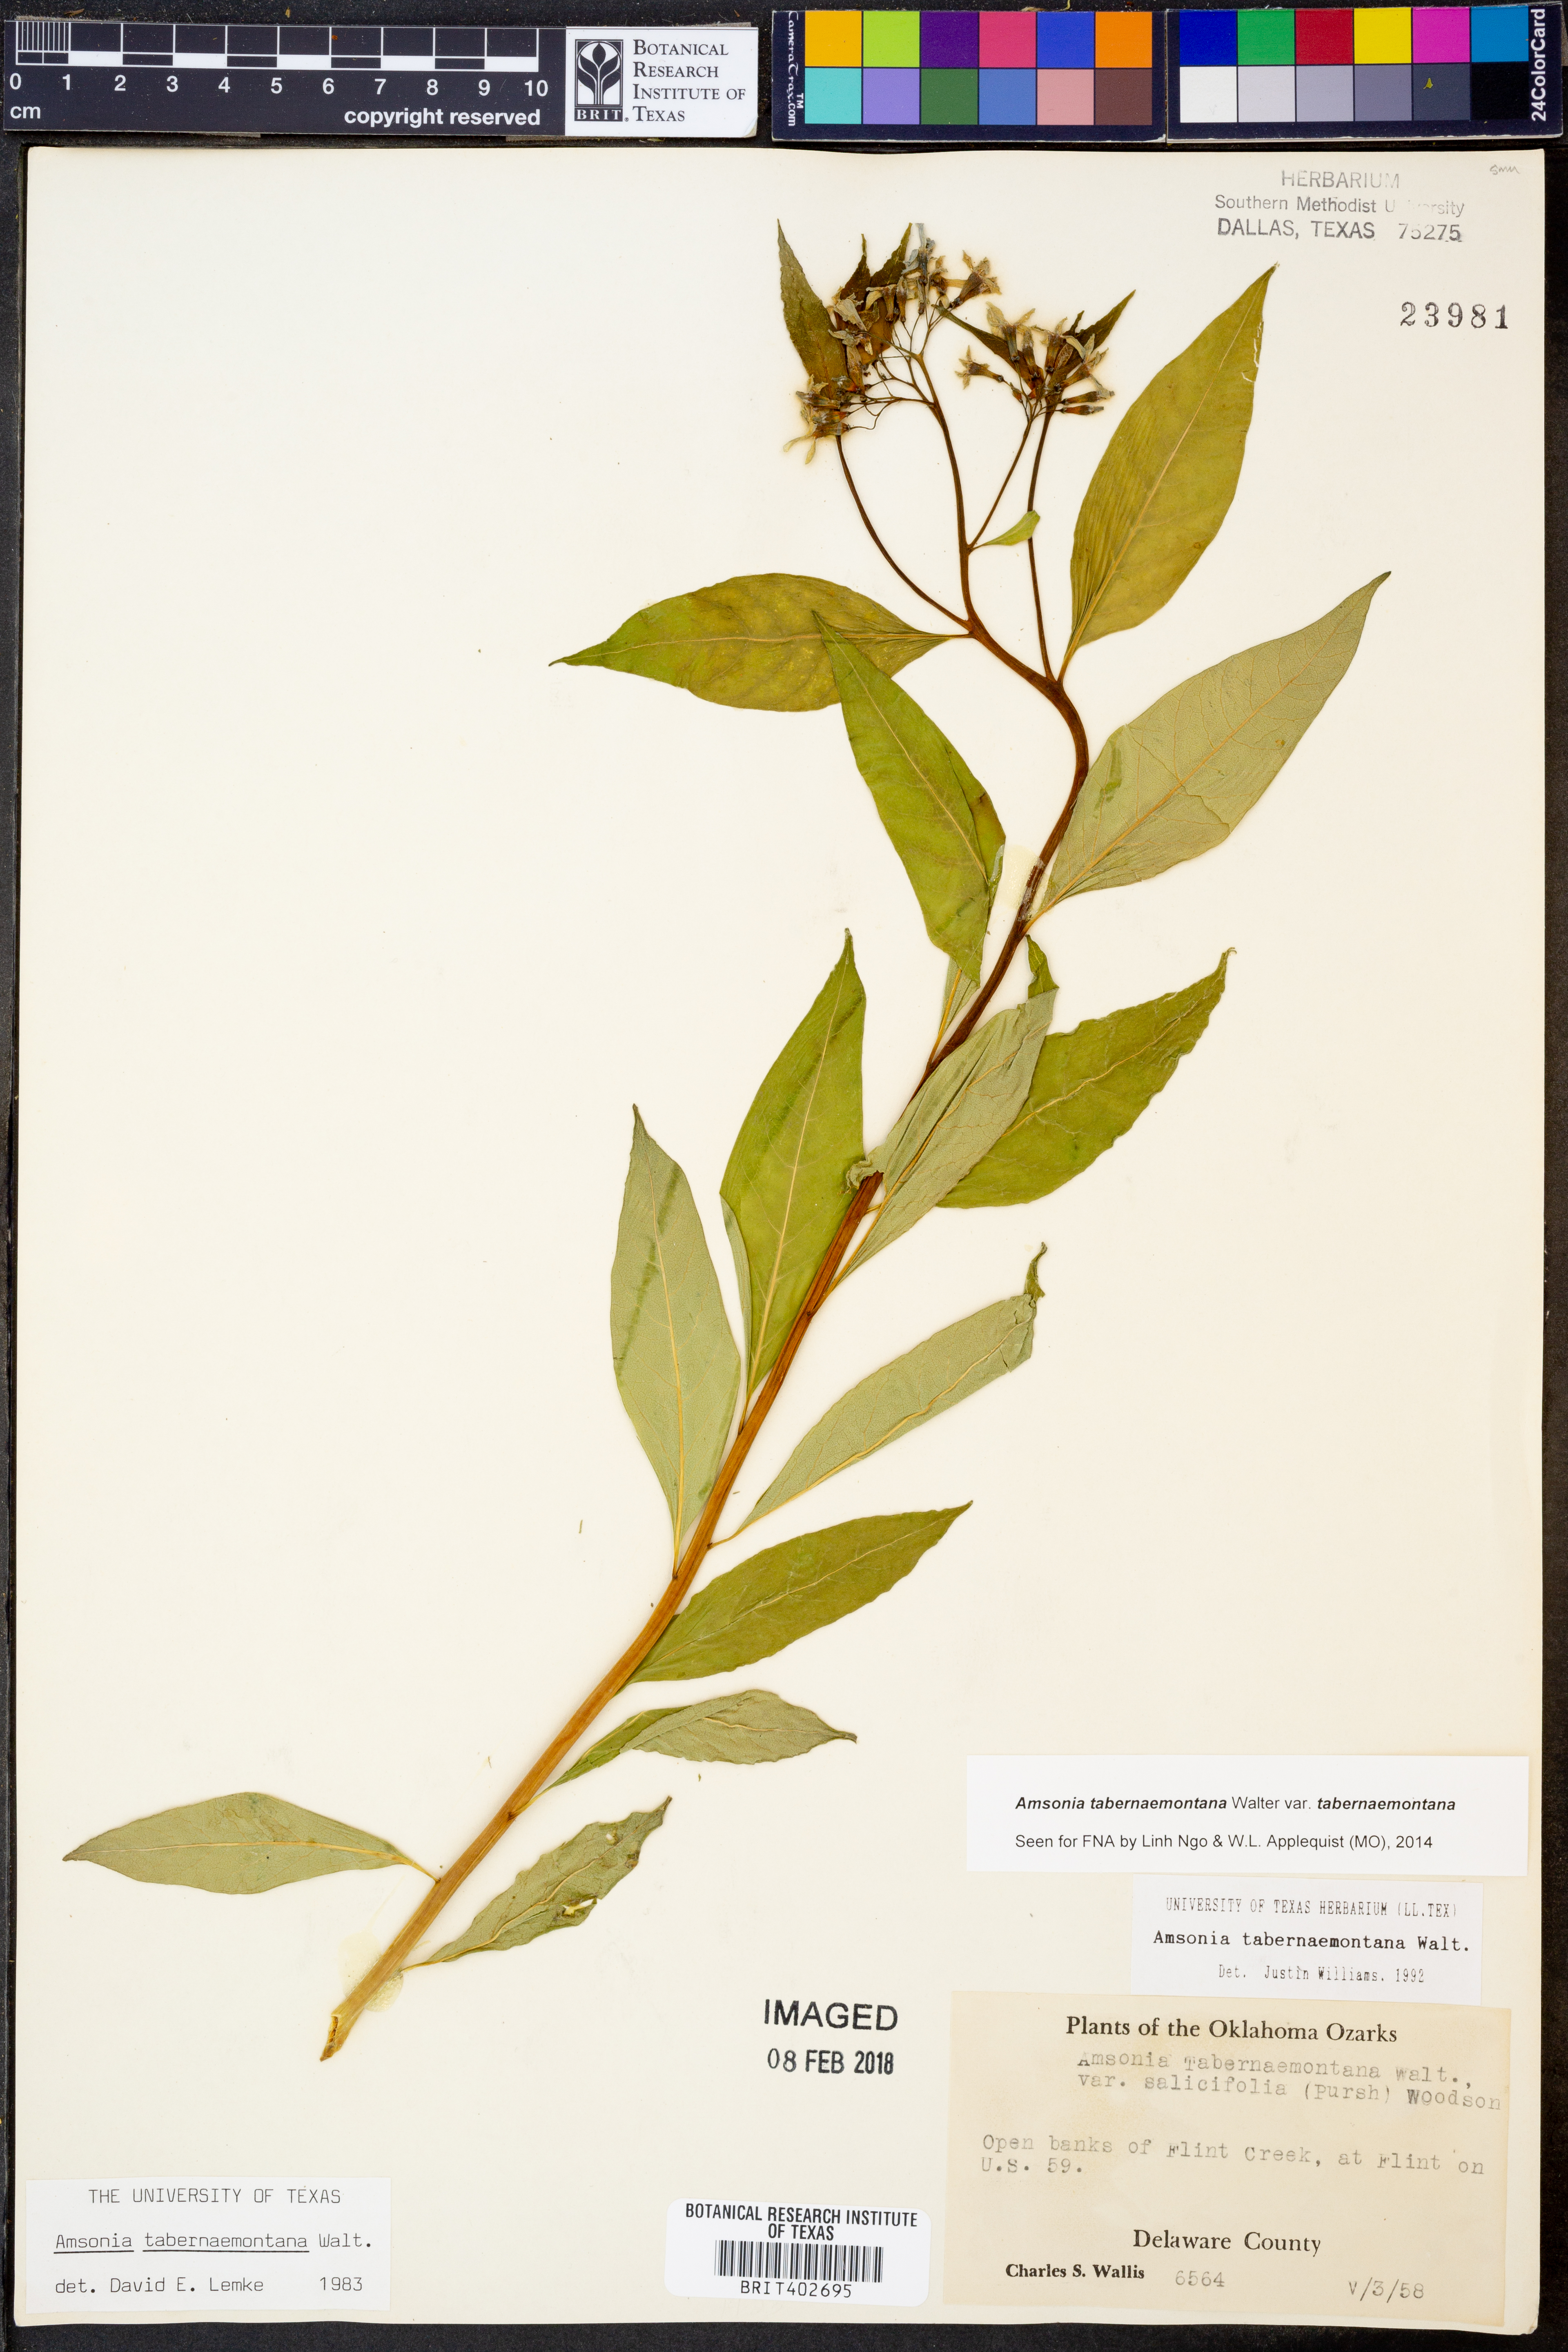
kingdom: Plantae
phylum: Tracheophyta
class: Magnoliopsida
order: Gentianales
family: Apocynaceae
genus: Amsonia
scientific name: Amsonia tabernaemontana
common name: Texas-star
